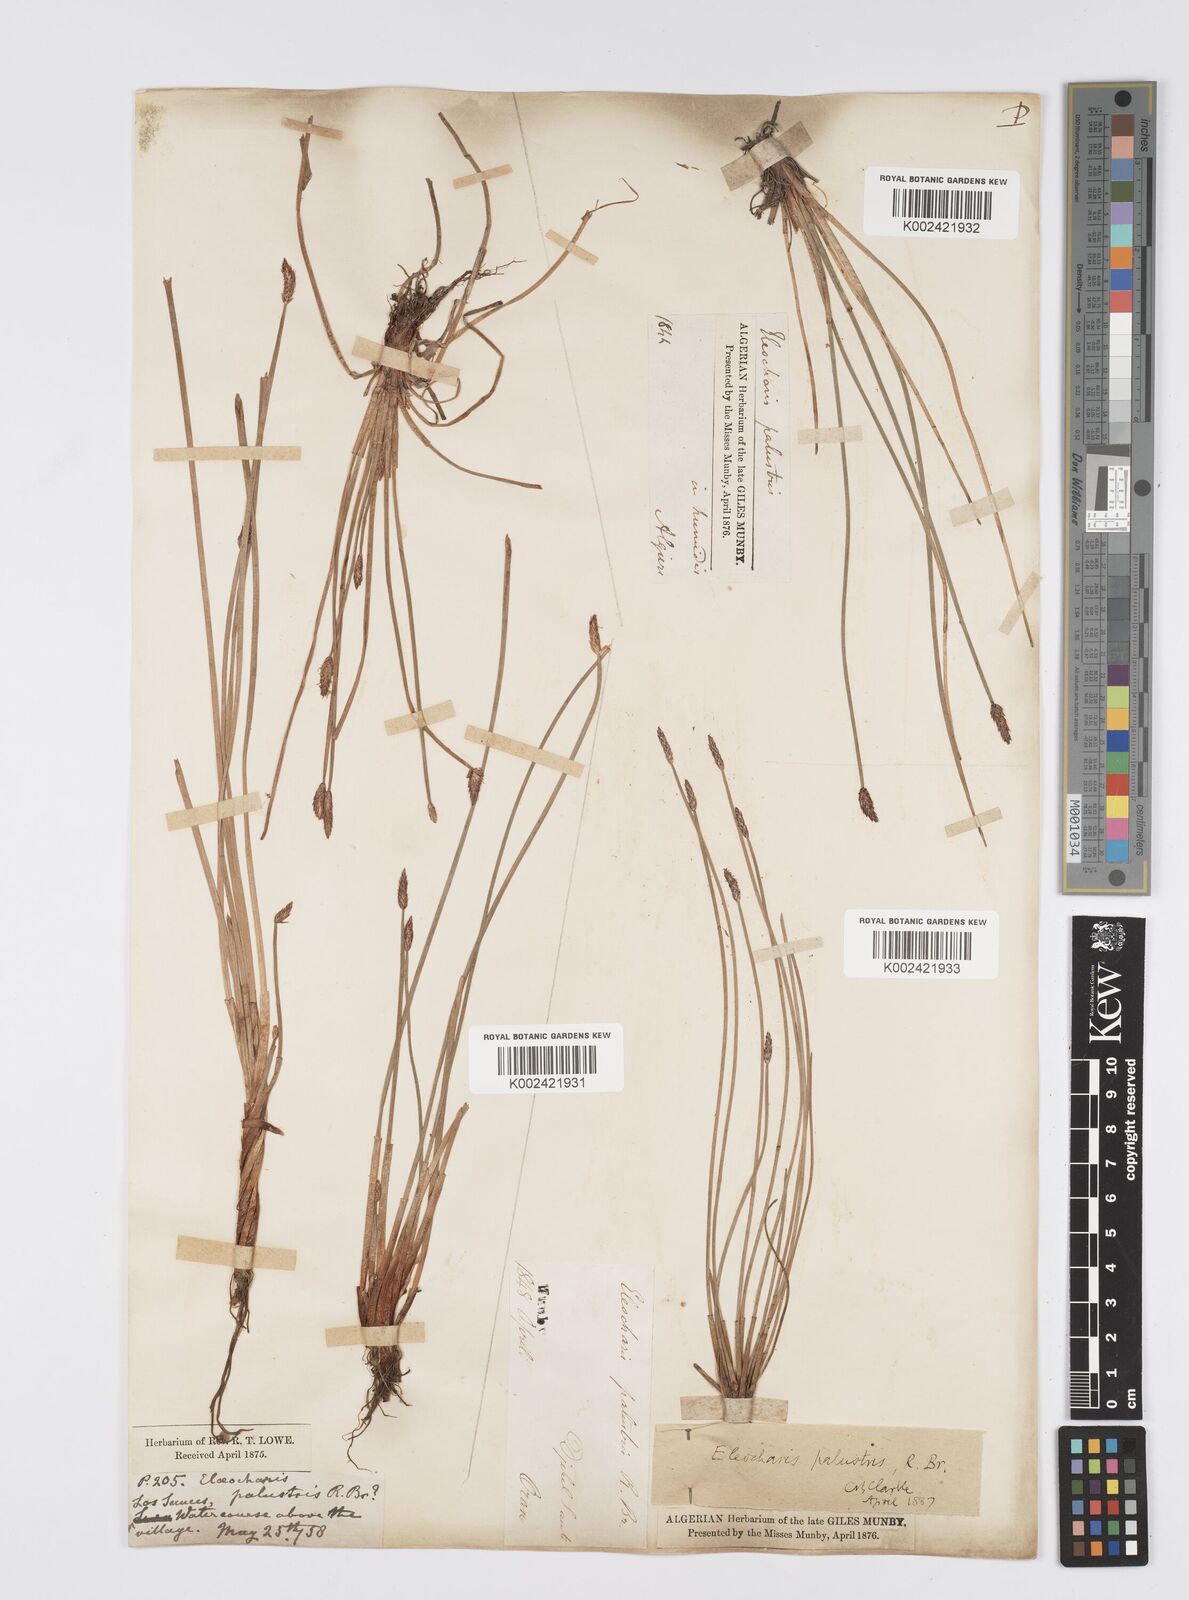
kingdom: Plantae
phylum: Tracheophyta
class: Liliopsida
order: Poales
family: Cyperaceae
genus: Eleocharis
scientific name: Eleocharis palustris
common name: Common spike-rush
